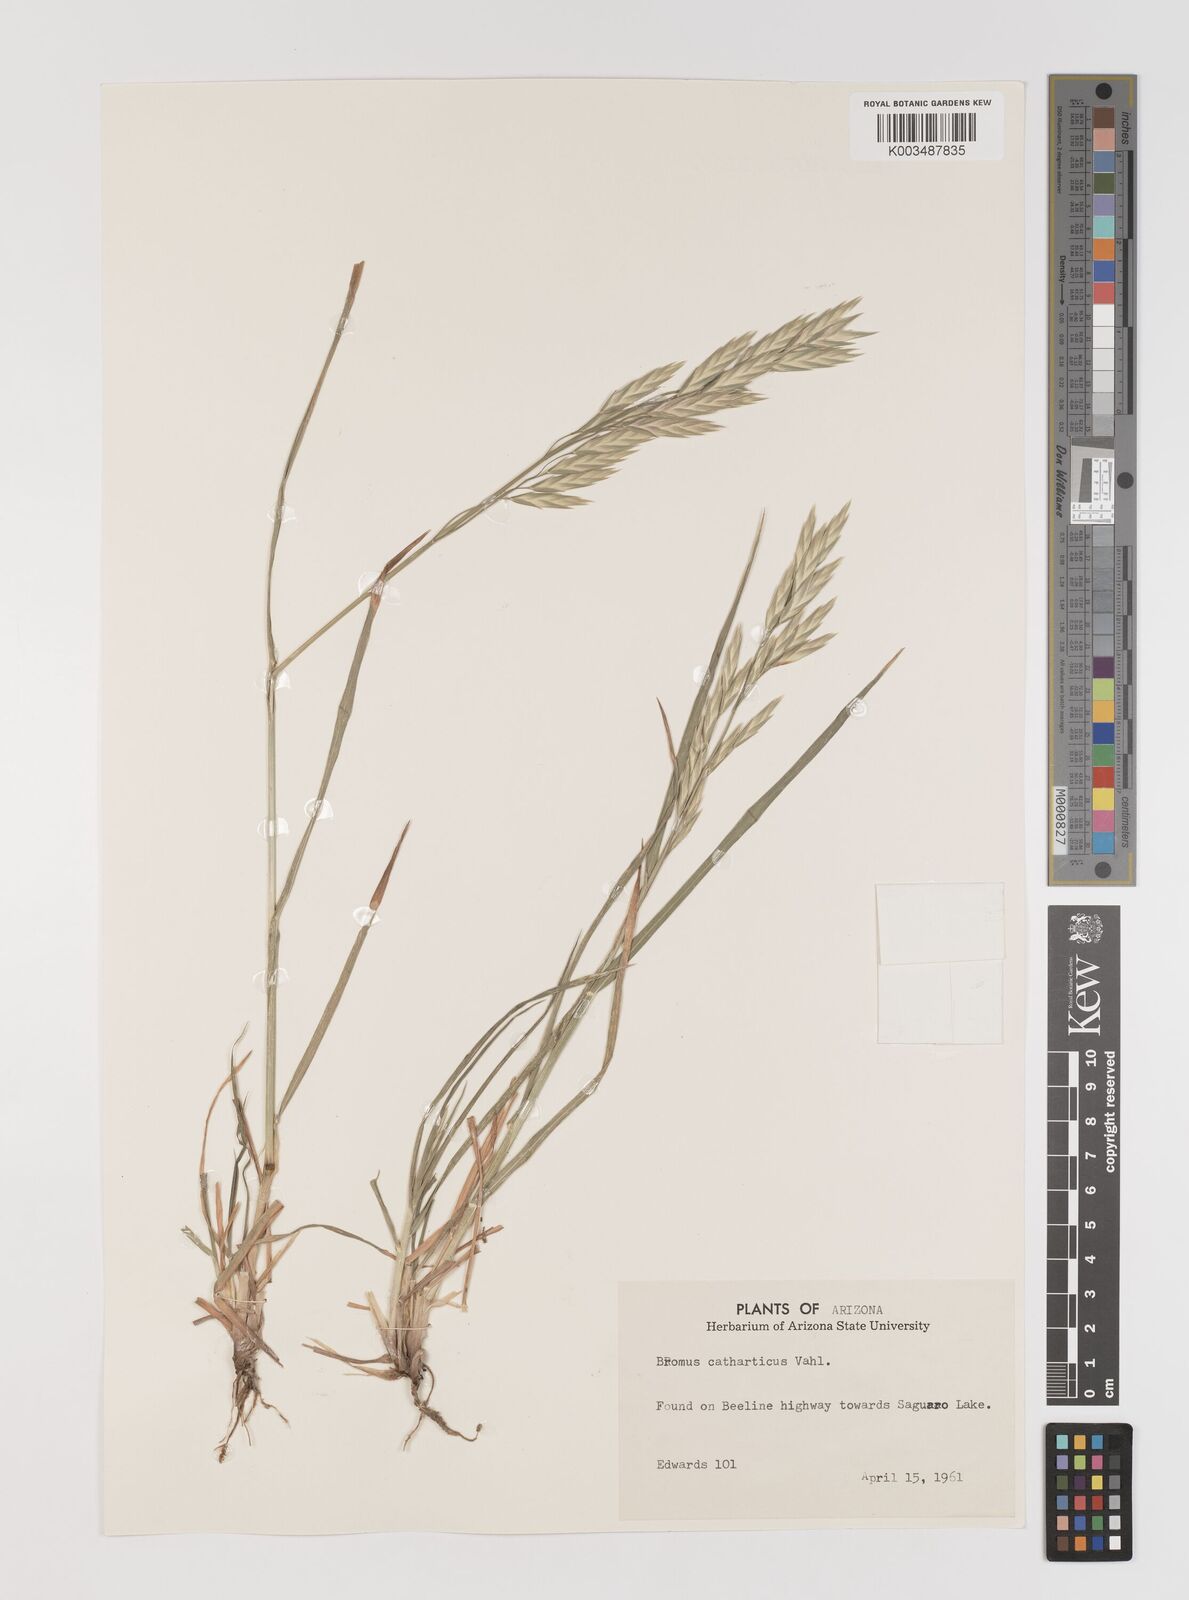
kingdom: Plantae
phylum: Tracheophyta
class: Liliopsida
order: Poales
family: Poaceae
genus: Bromus
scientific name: Bromus catharticus
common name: Rescuegrass
